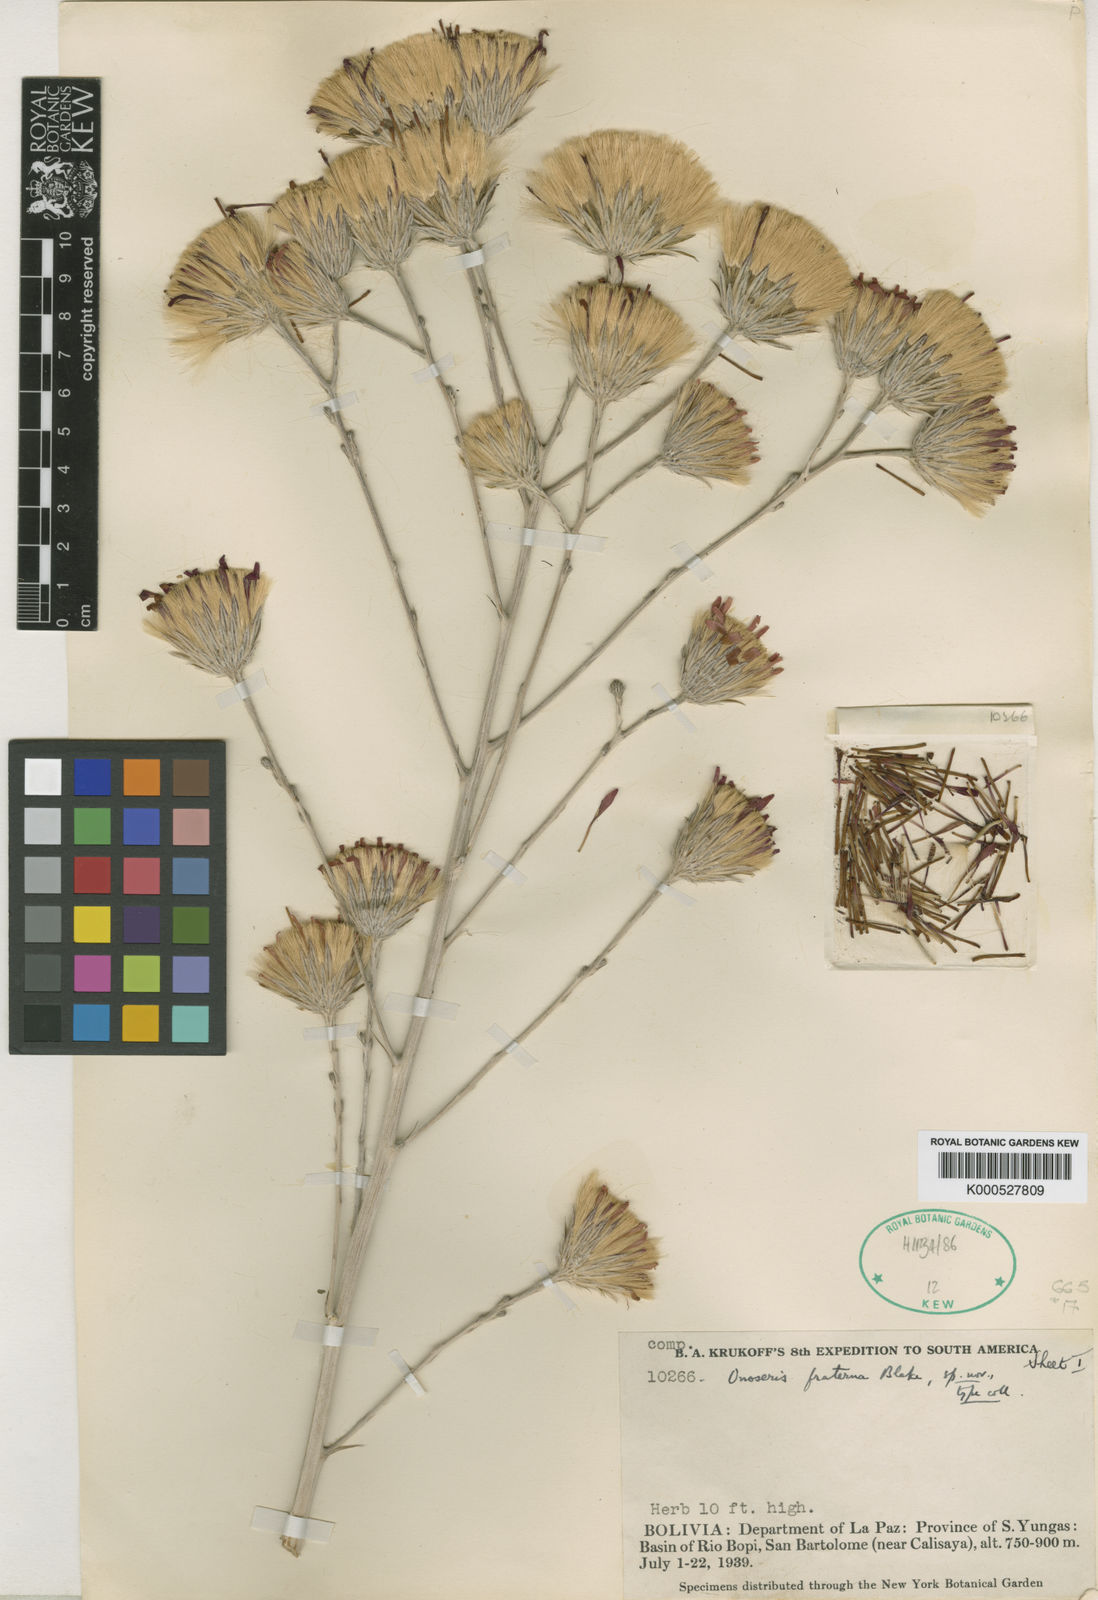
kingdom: Plantae
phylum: Tracheophyta
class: Magnoliopsida
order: Asterales
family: Asteraceae
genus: Onoseris
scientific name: Onoseris fraterna
